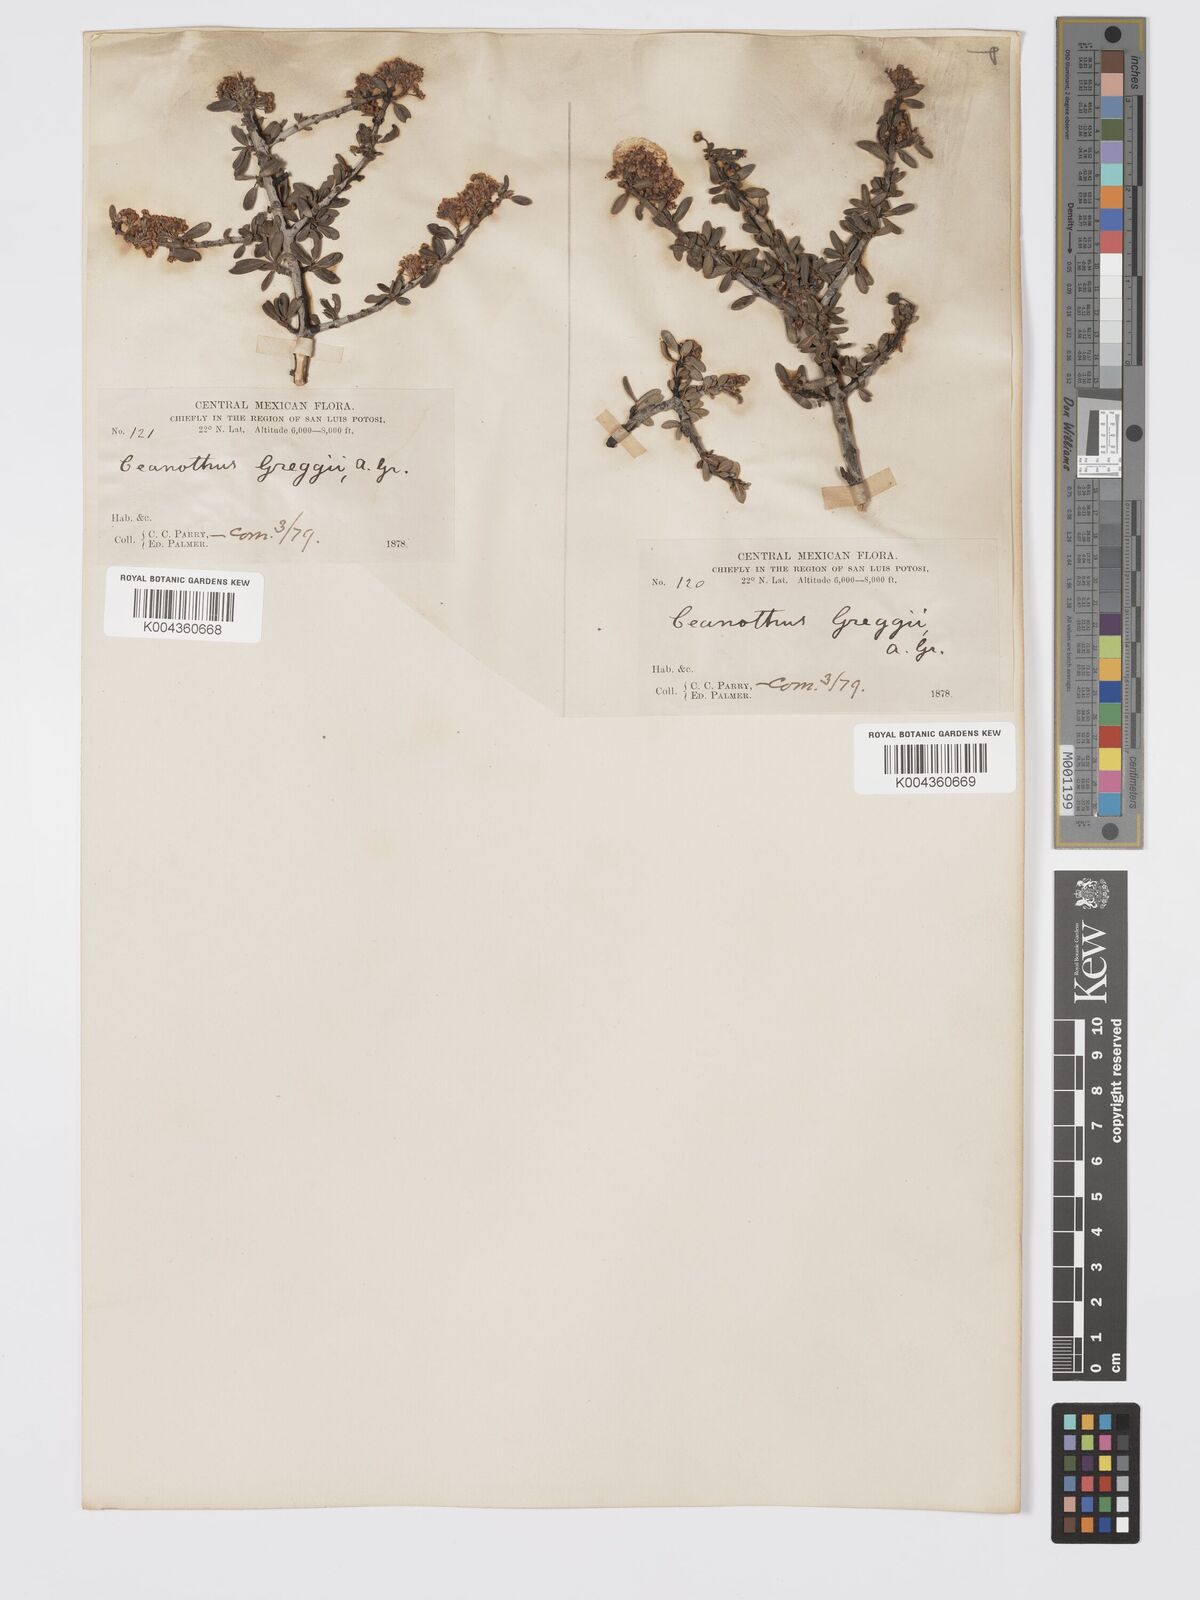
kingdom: Plantae
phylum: Tracheophyta
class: Magnoliopsida
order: Rosales
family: Rhamnaceae
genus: Ceanothus
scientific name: Ceanothus pauciflorus
